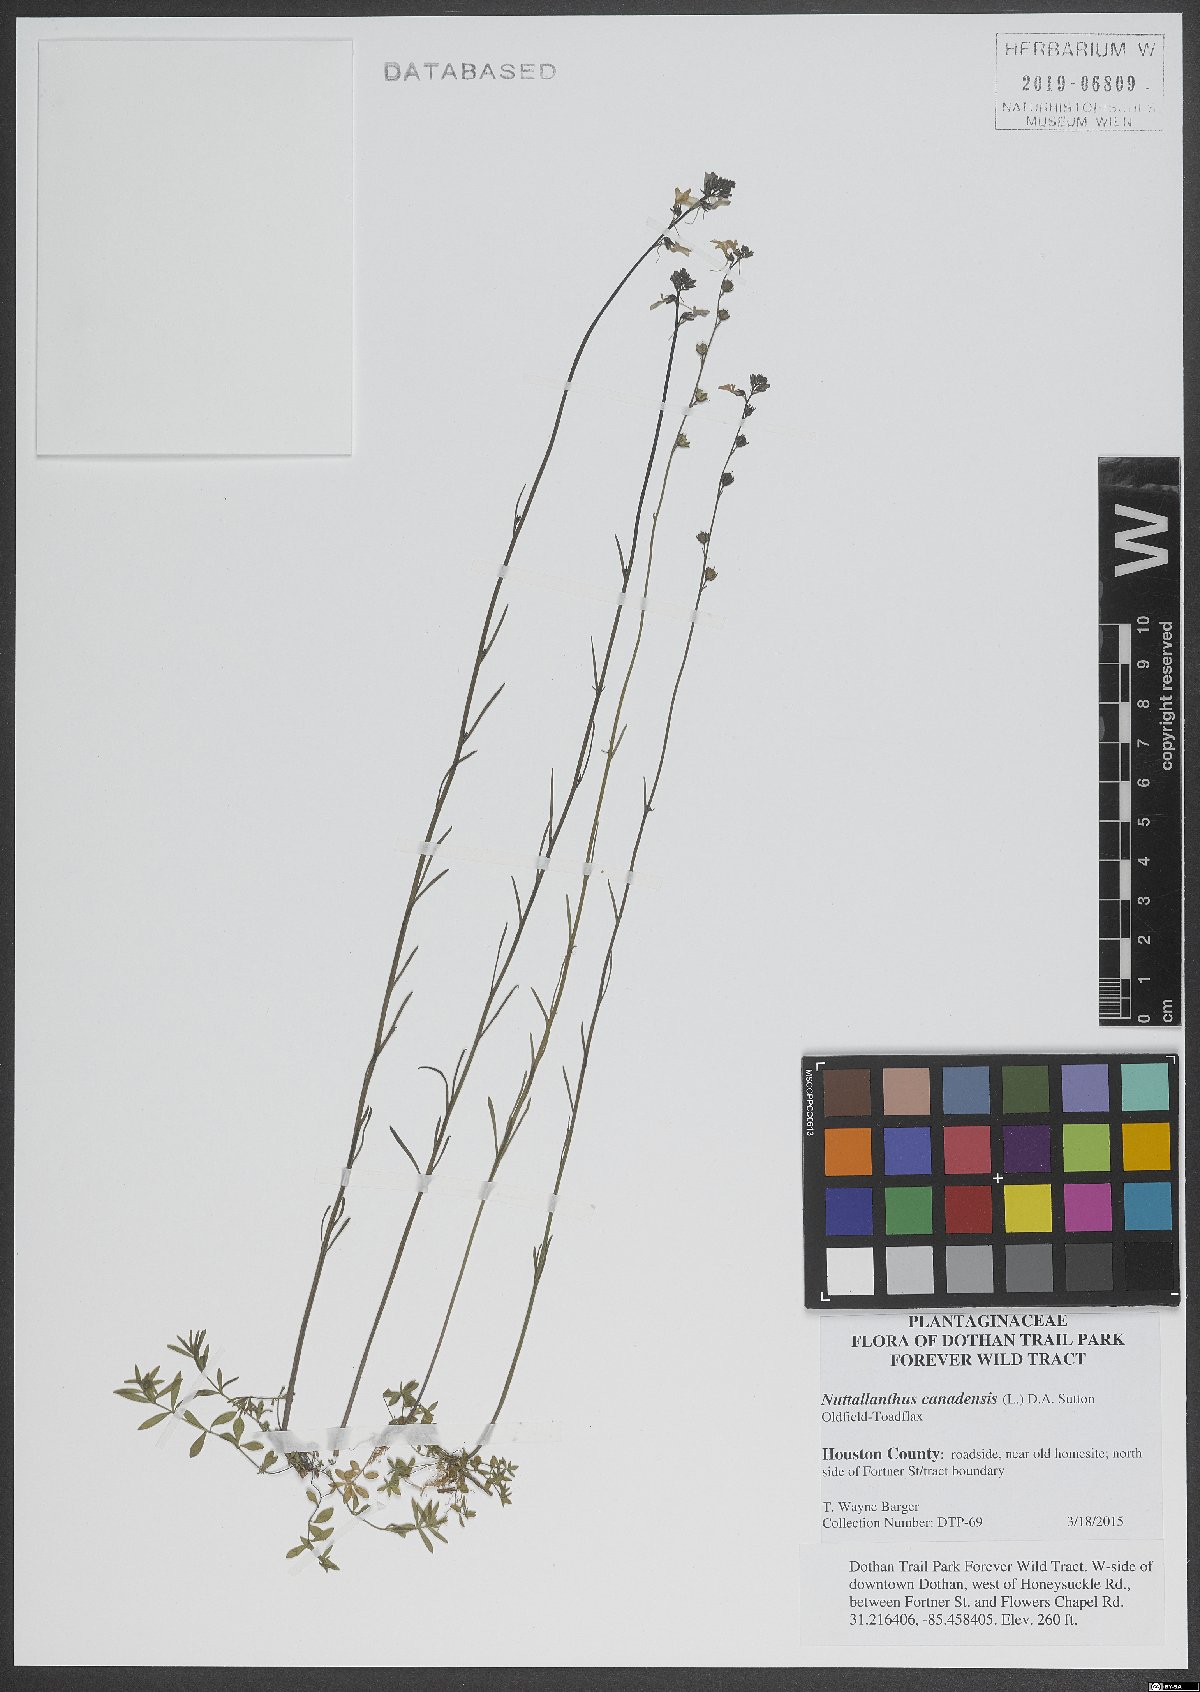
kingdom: Plantae
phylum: Tracheophyta
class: Magnoliopsida
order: Lamiales
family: Plantaginaceae
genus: Nuttallanthus
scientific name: Nuttallanthus canadensis
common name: Blue toadflax
